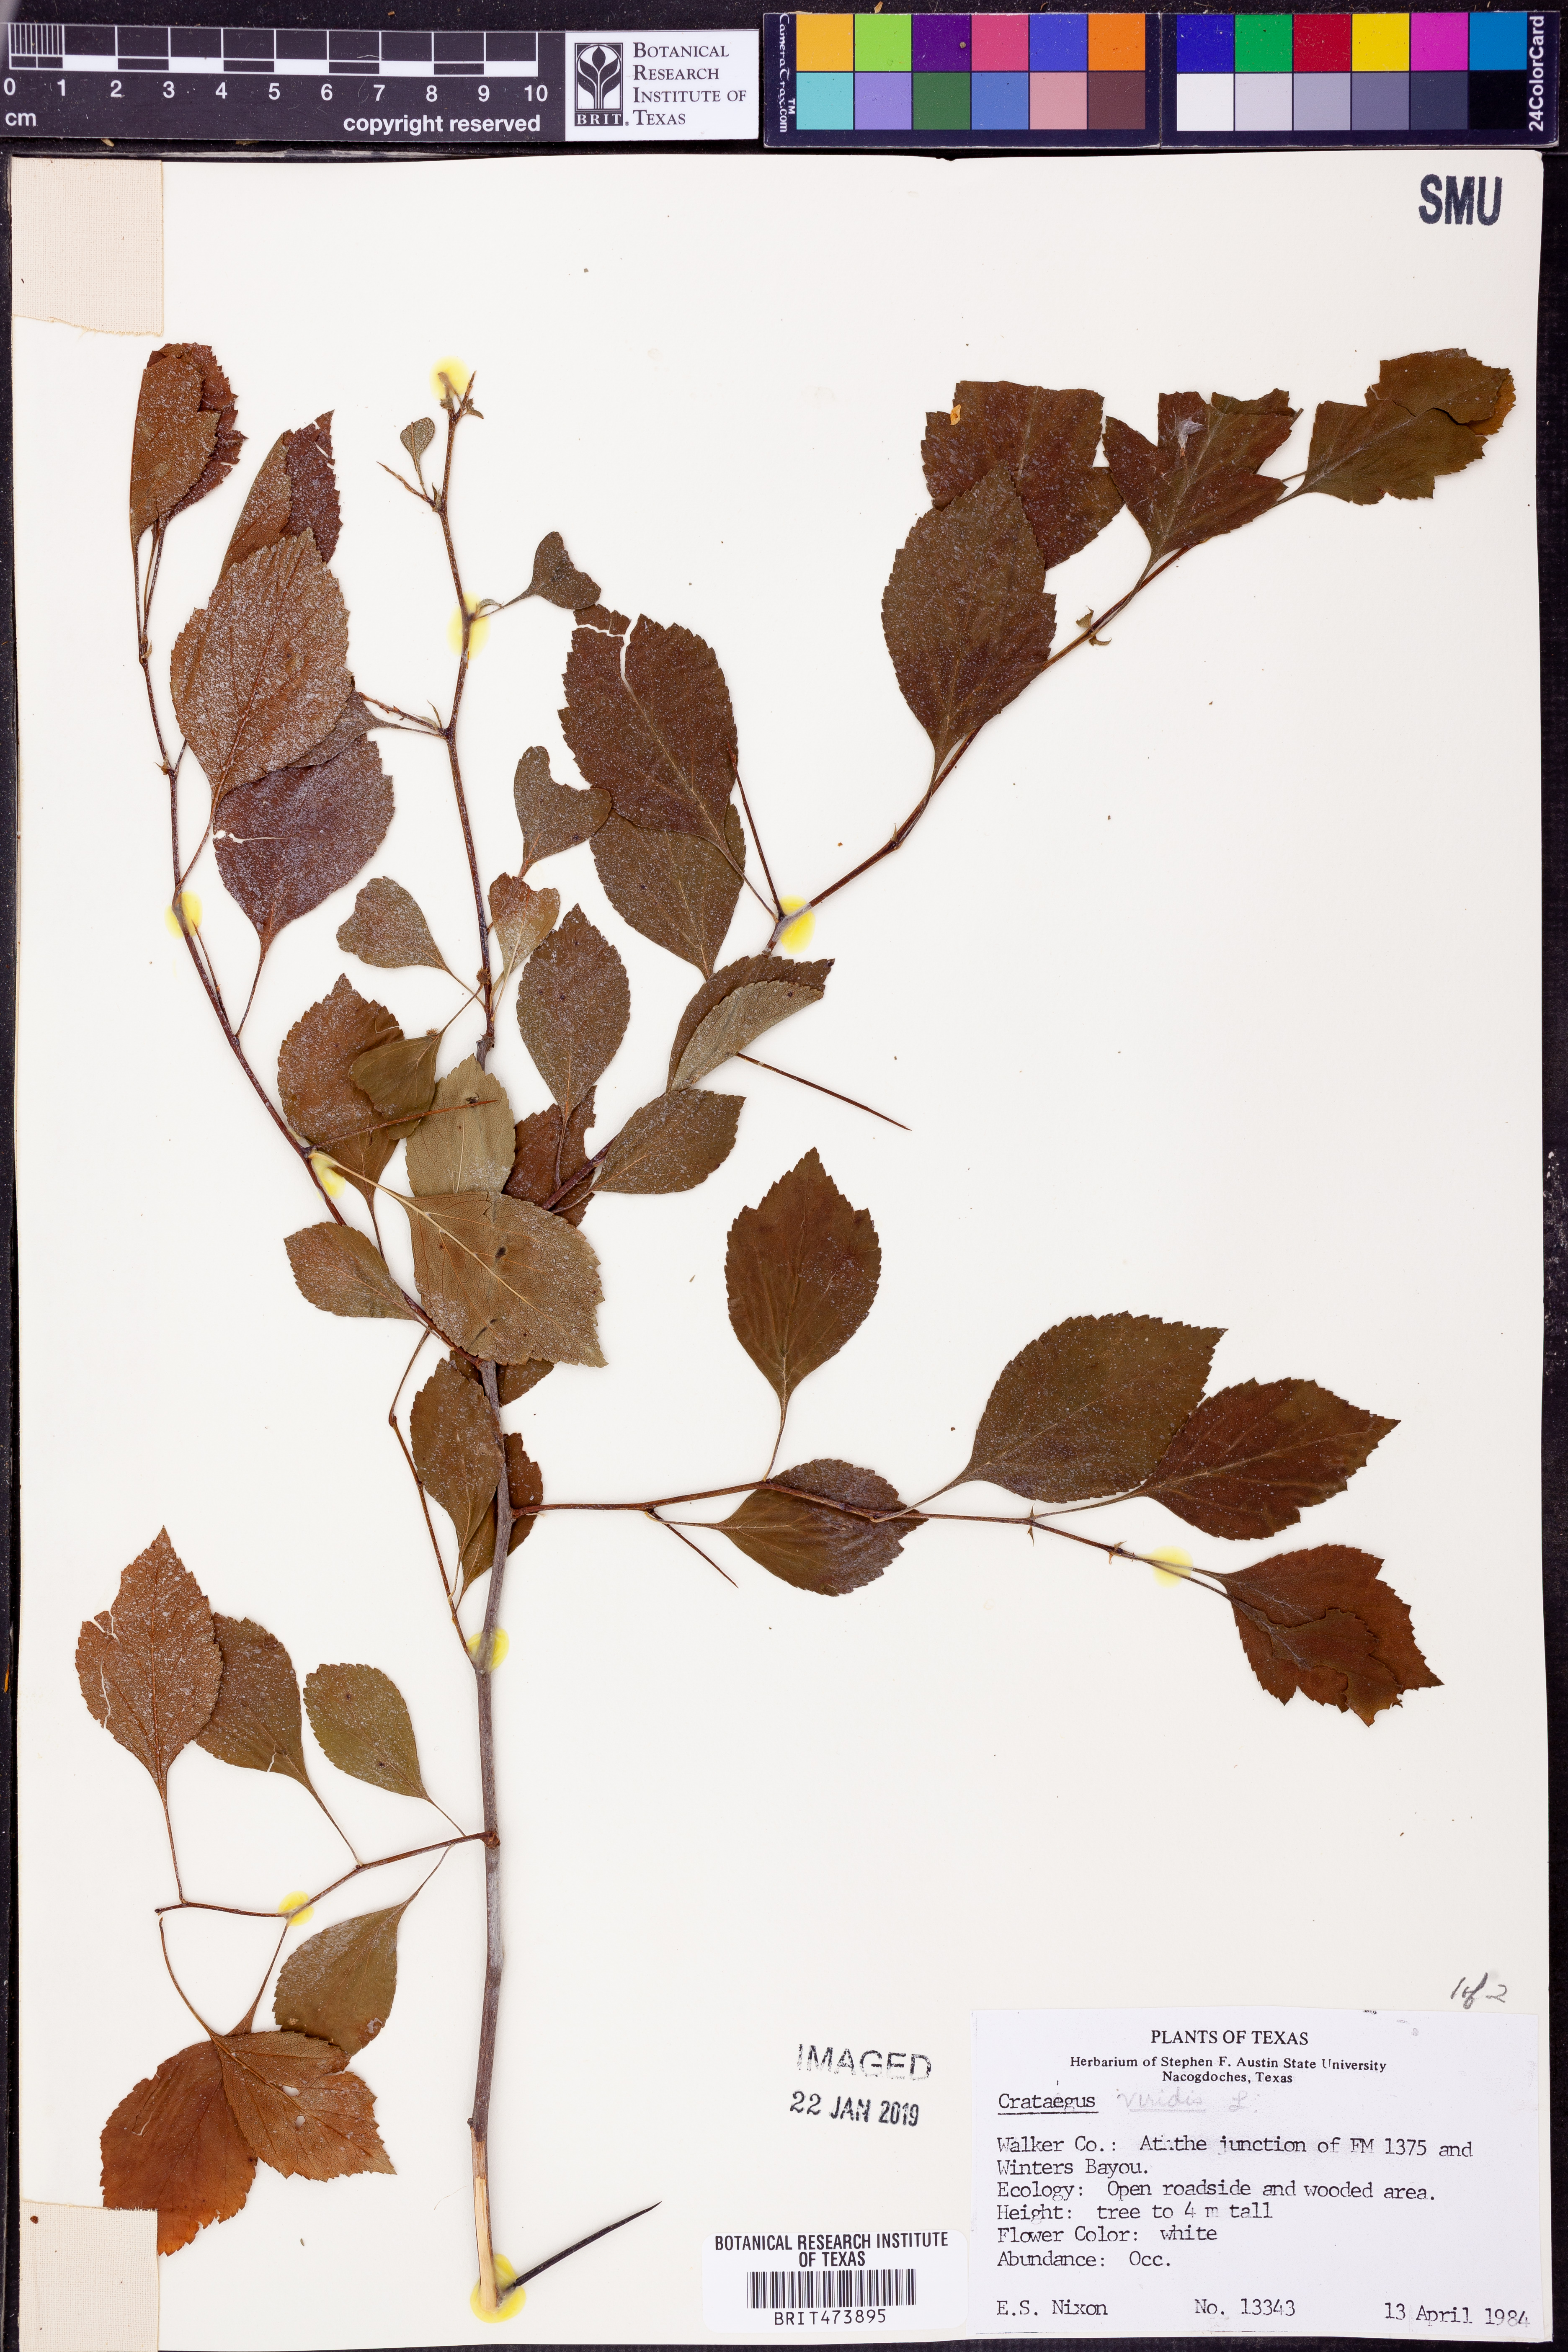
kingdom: Plantae
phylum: Tracheophyta
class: Magnoliopsida
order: Rosales
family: Rosaceae
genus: Crataegus
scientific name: Crataegus viridis
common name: Southernthorn
